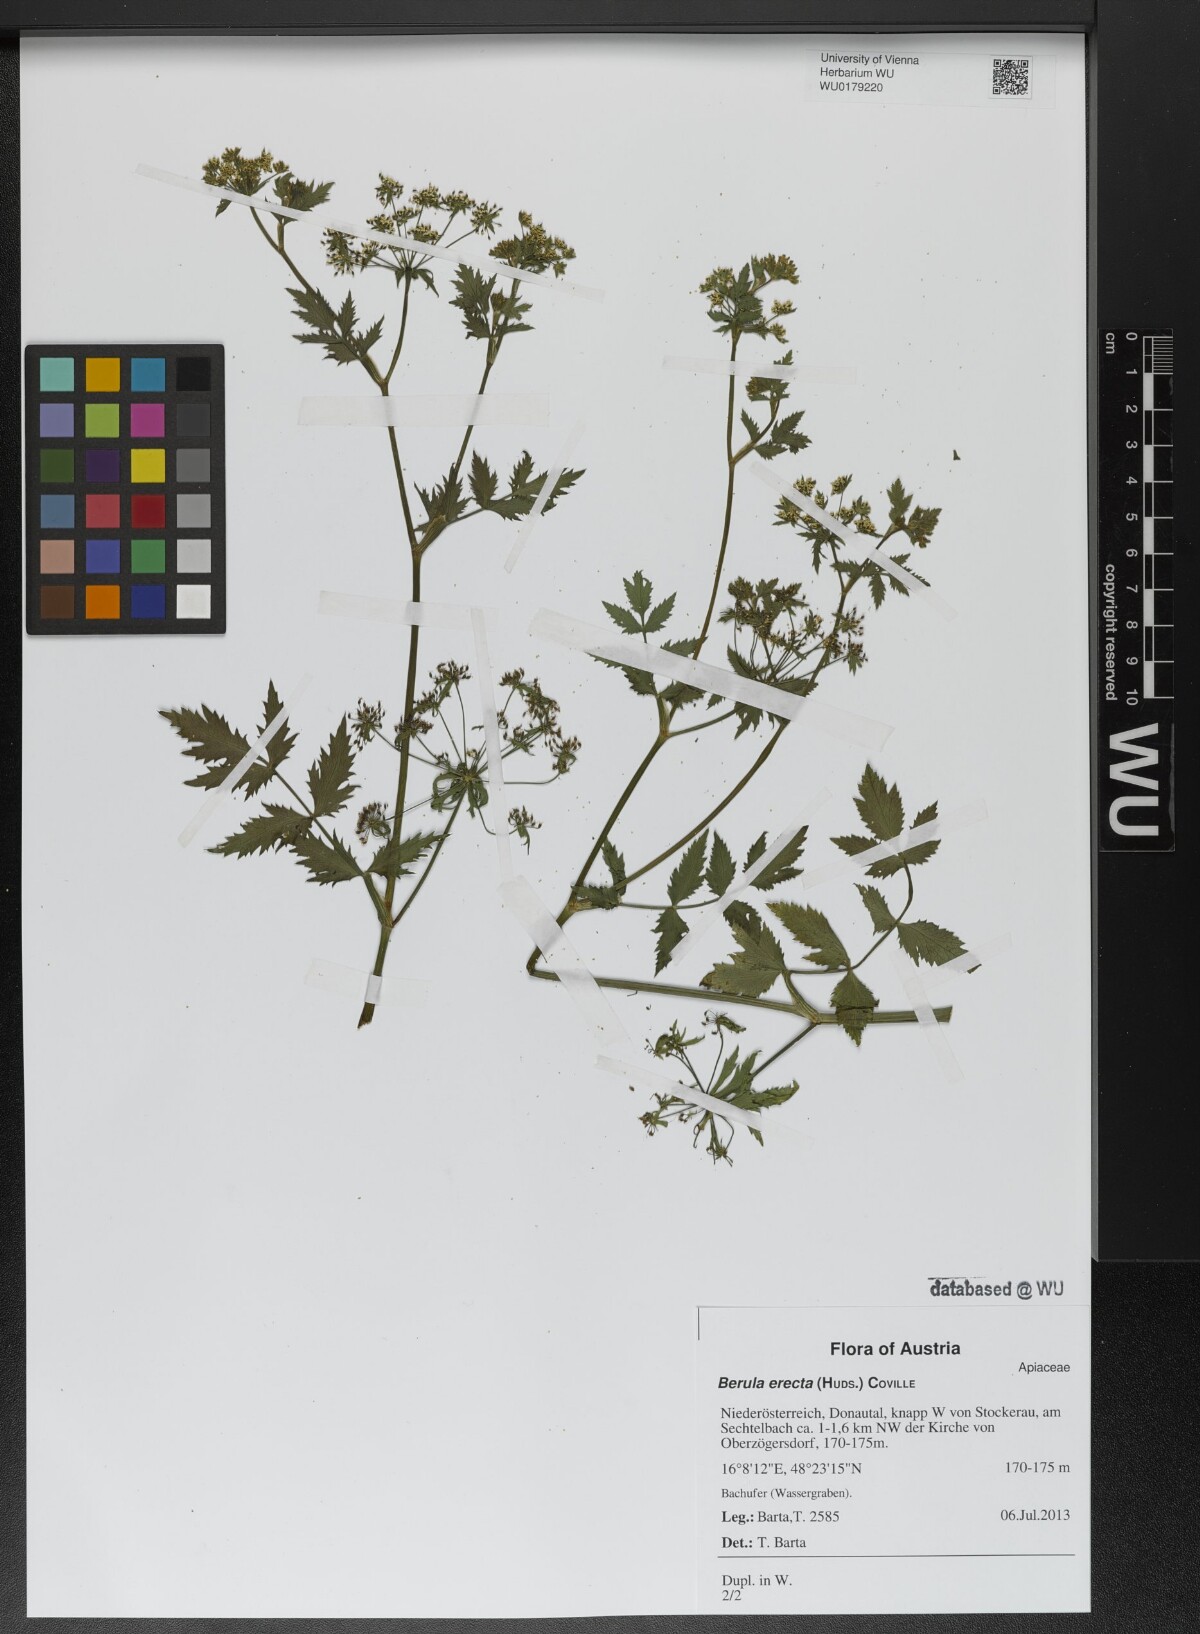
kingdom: Plantae
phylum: Tracheophyta
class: Magnoliopsida
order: Apiales
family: Apiaceae
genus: Berula
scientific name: Berula erecta
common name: Lesser water-parsnip
